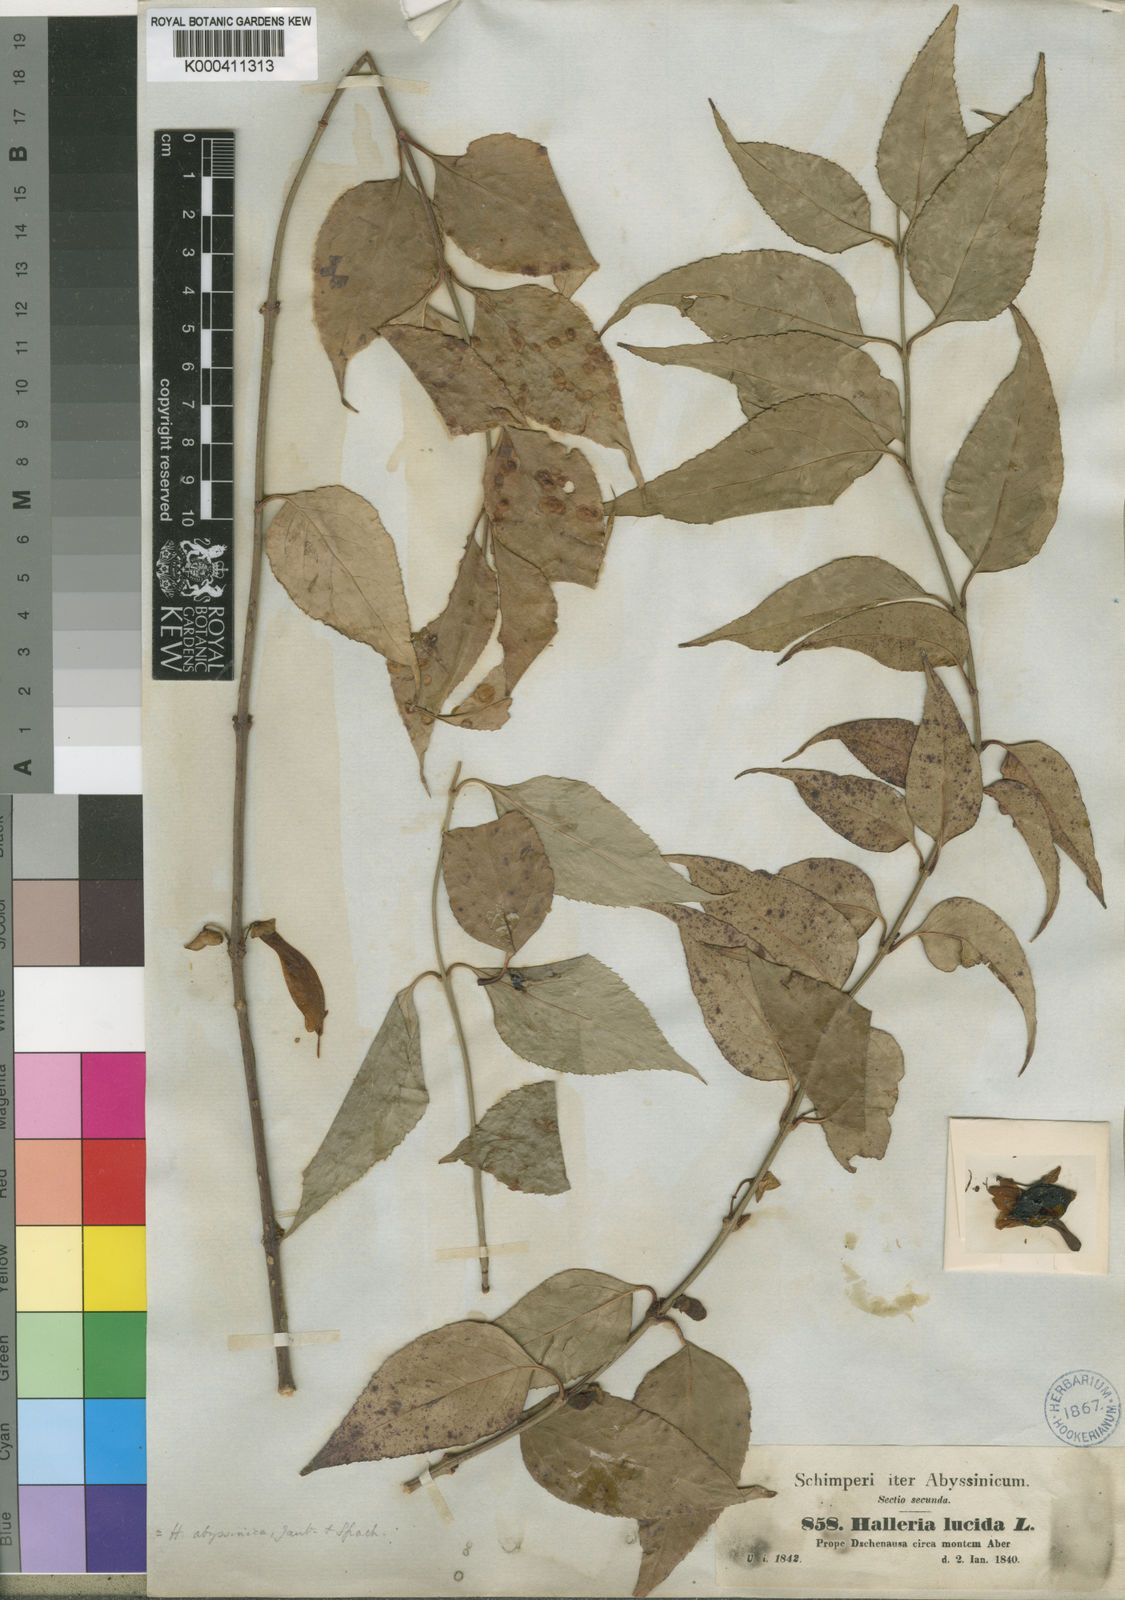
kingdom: Plantae
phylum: Tracheophyta
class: Magnoliopsida
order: Lamiales
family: Stilbaceae
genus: Halleria
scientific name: Halleria lucida
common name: Tree fuschia
